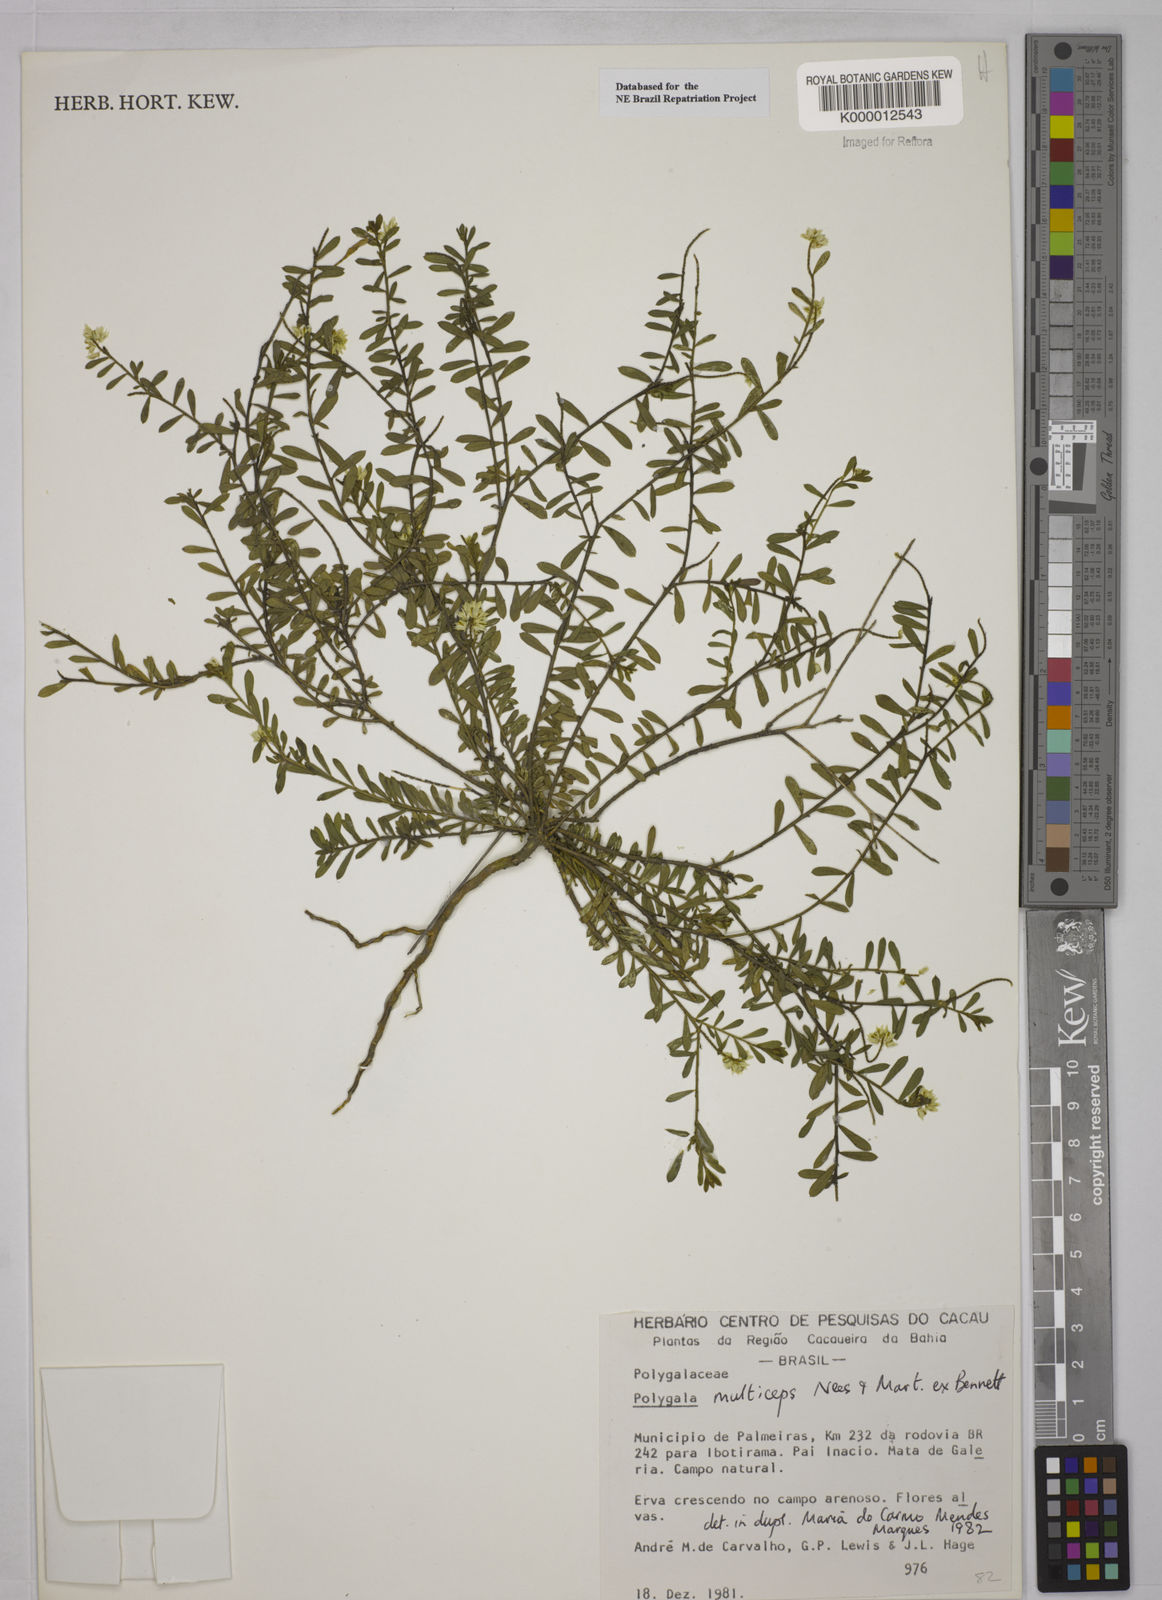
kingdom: Plantae
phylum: Tracheophyta
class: Magnoliopsida
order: Fabales
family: Polygalaceae
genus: Polygala
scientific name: Polygala
